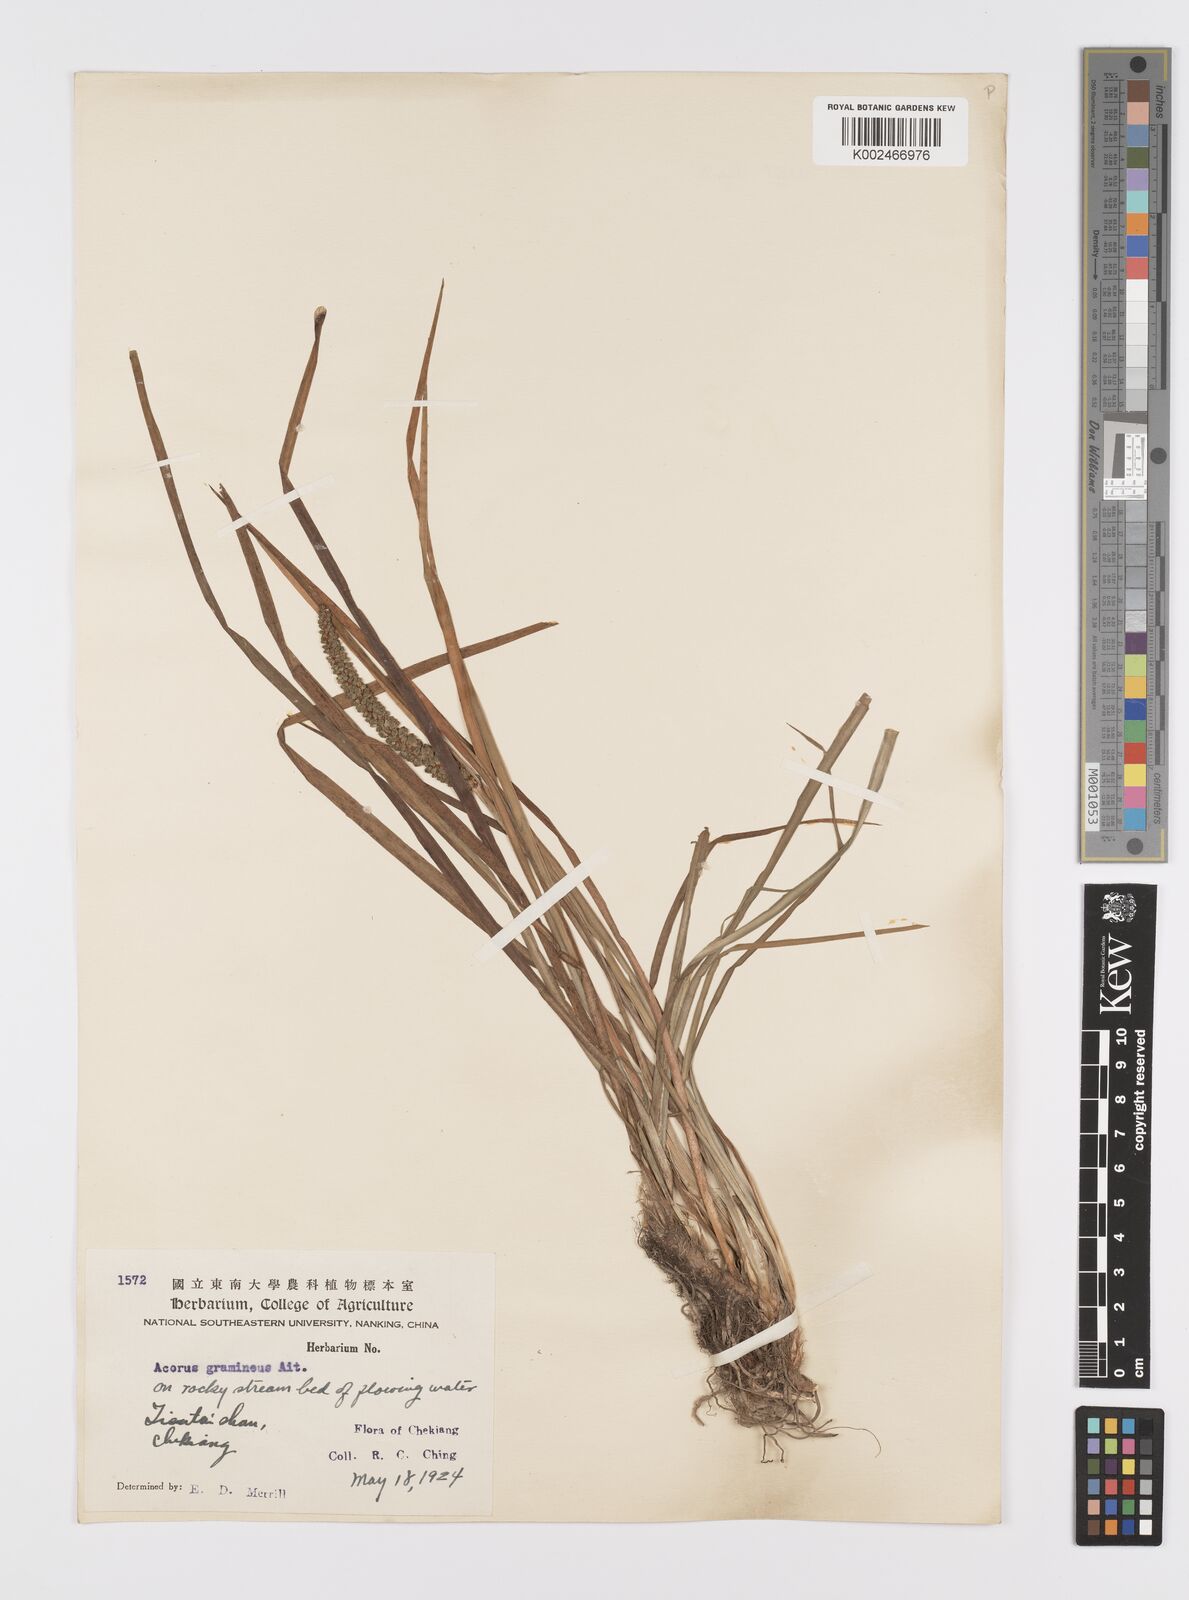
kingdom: Plantae
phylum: Tracheophyta
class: Liliopsida
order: Acorales
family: Acoraceae
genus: Acorus
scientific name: Acorus gramineus
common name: Slender sweet-flag
